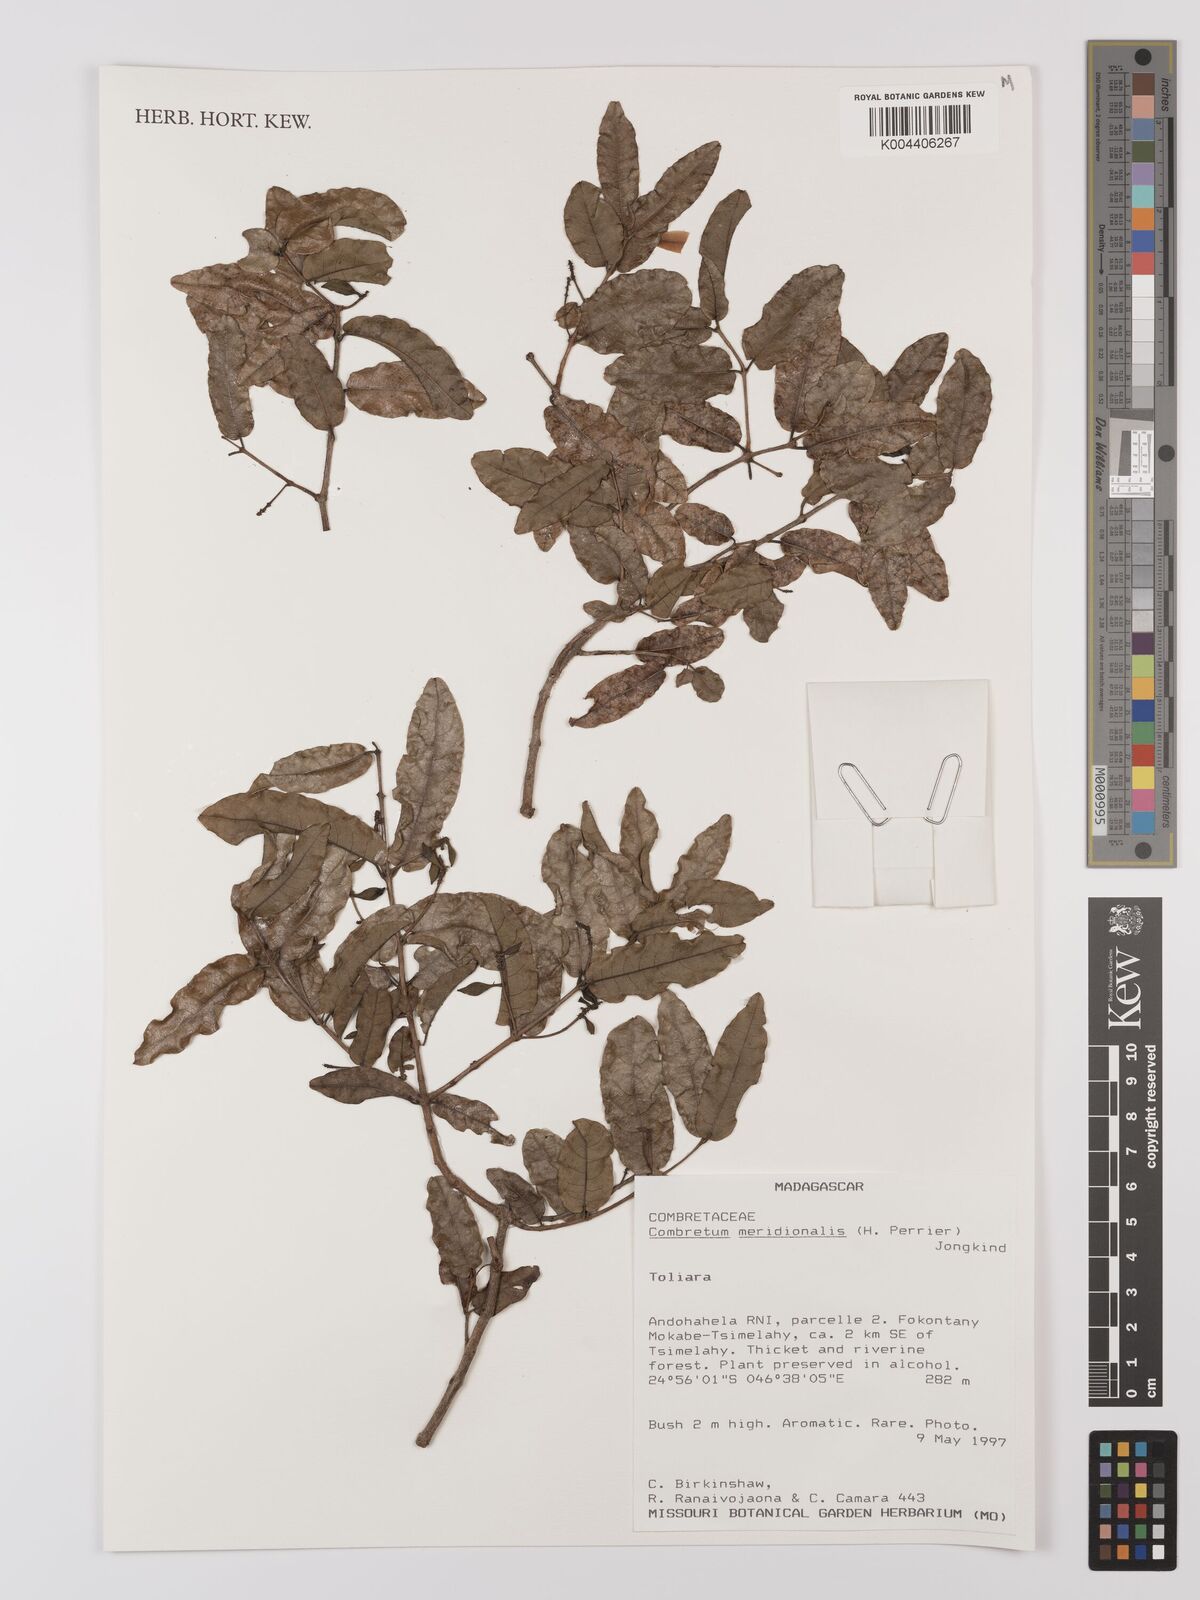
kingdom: Plantae
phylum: Tracheophyta
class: Magnoliopsida
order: Myrtales
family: Combretaceae
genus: Combretum
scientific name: Combretum meridionalis
